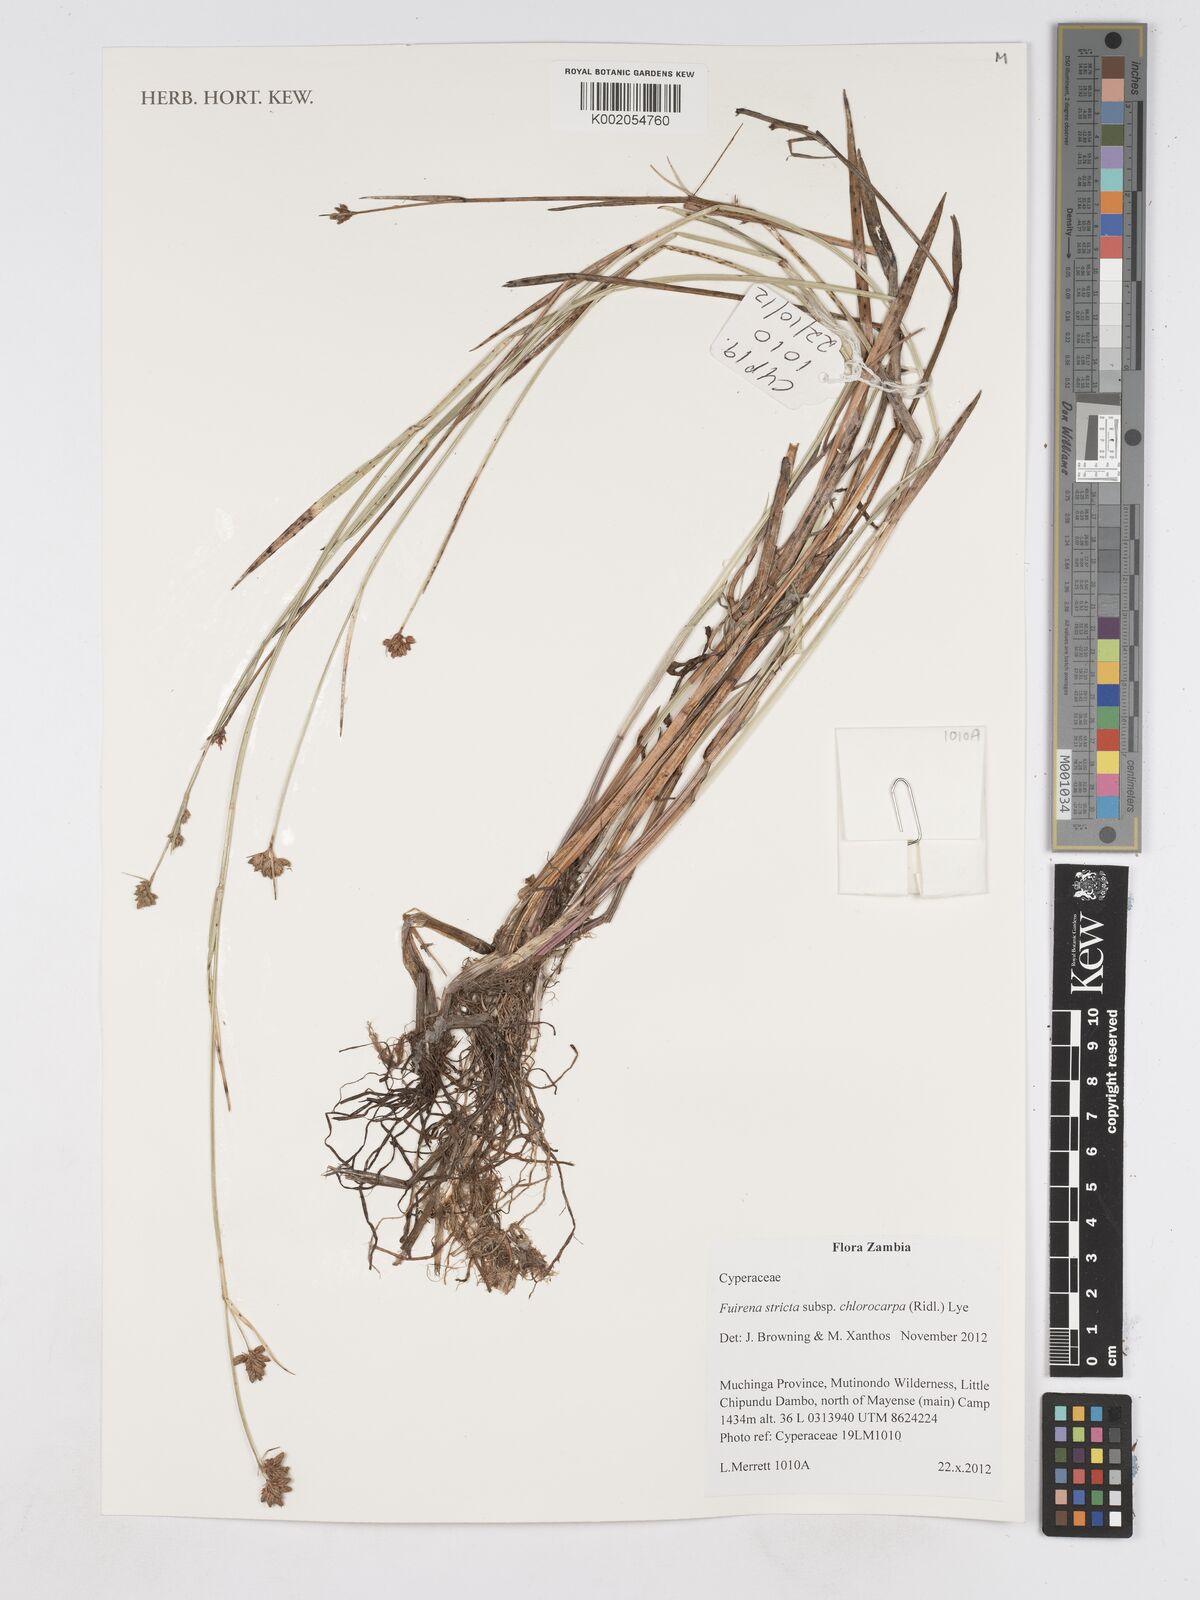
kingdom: Plantae
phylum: Tracheophyta
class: Liliopsida
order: Poales
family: Cyperaceae
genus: Fuirena
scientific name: Fuirena stricta
